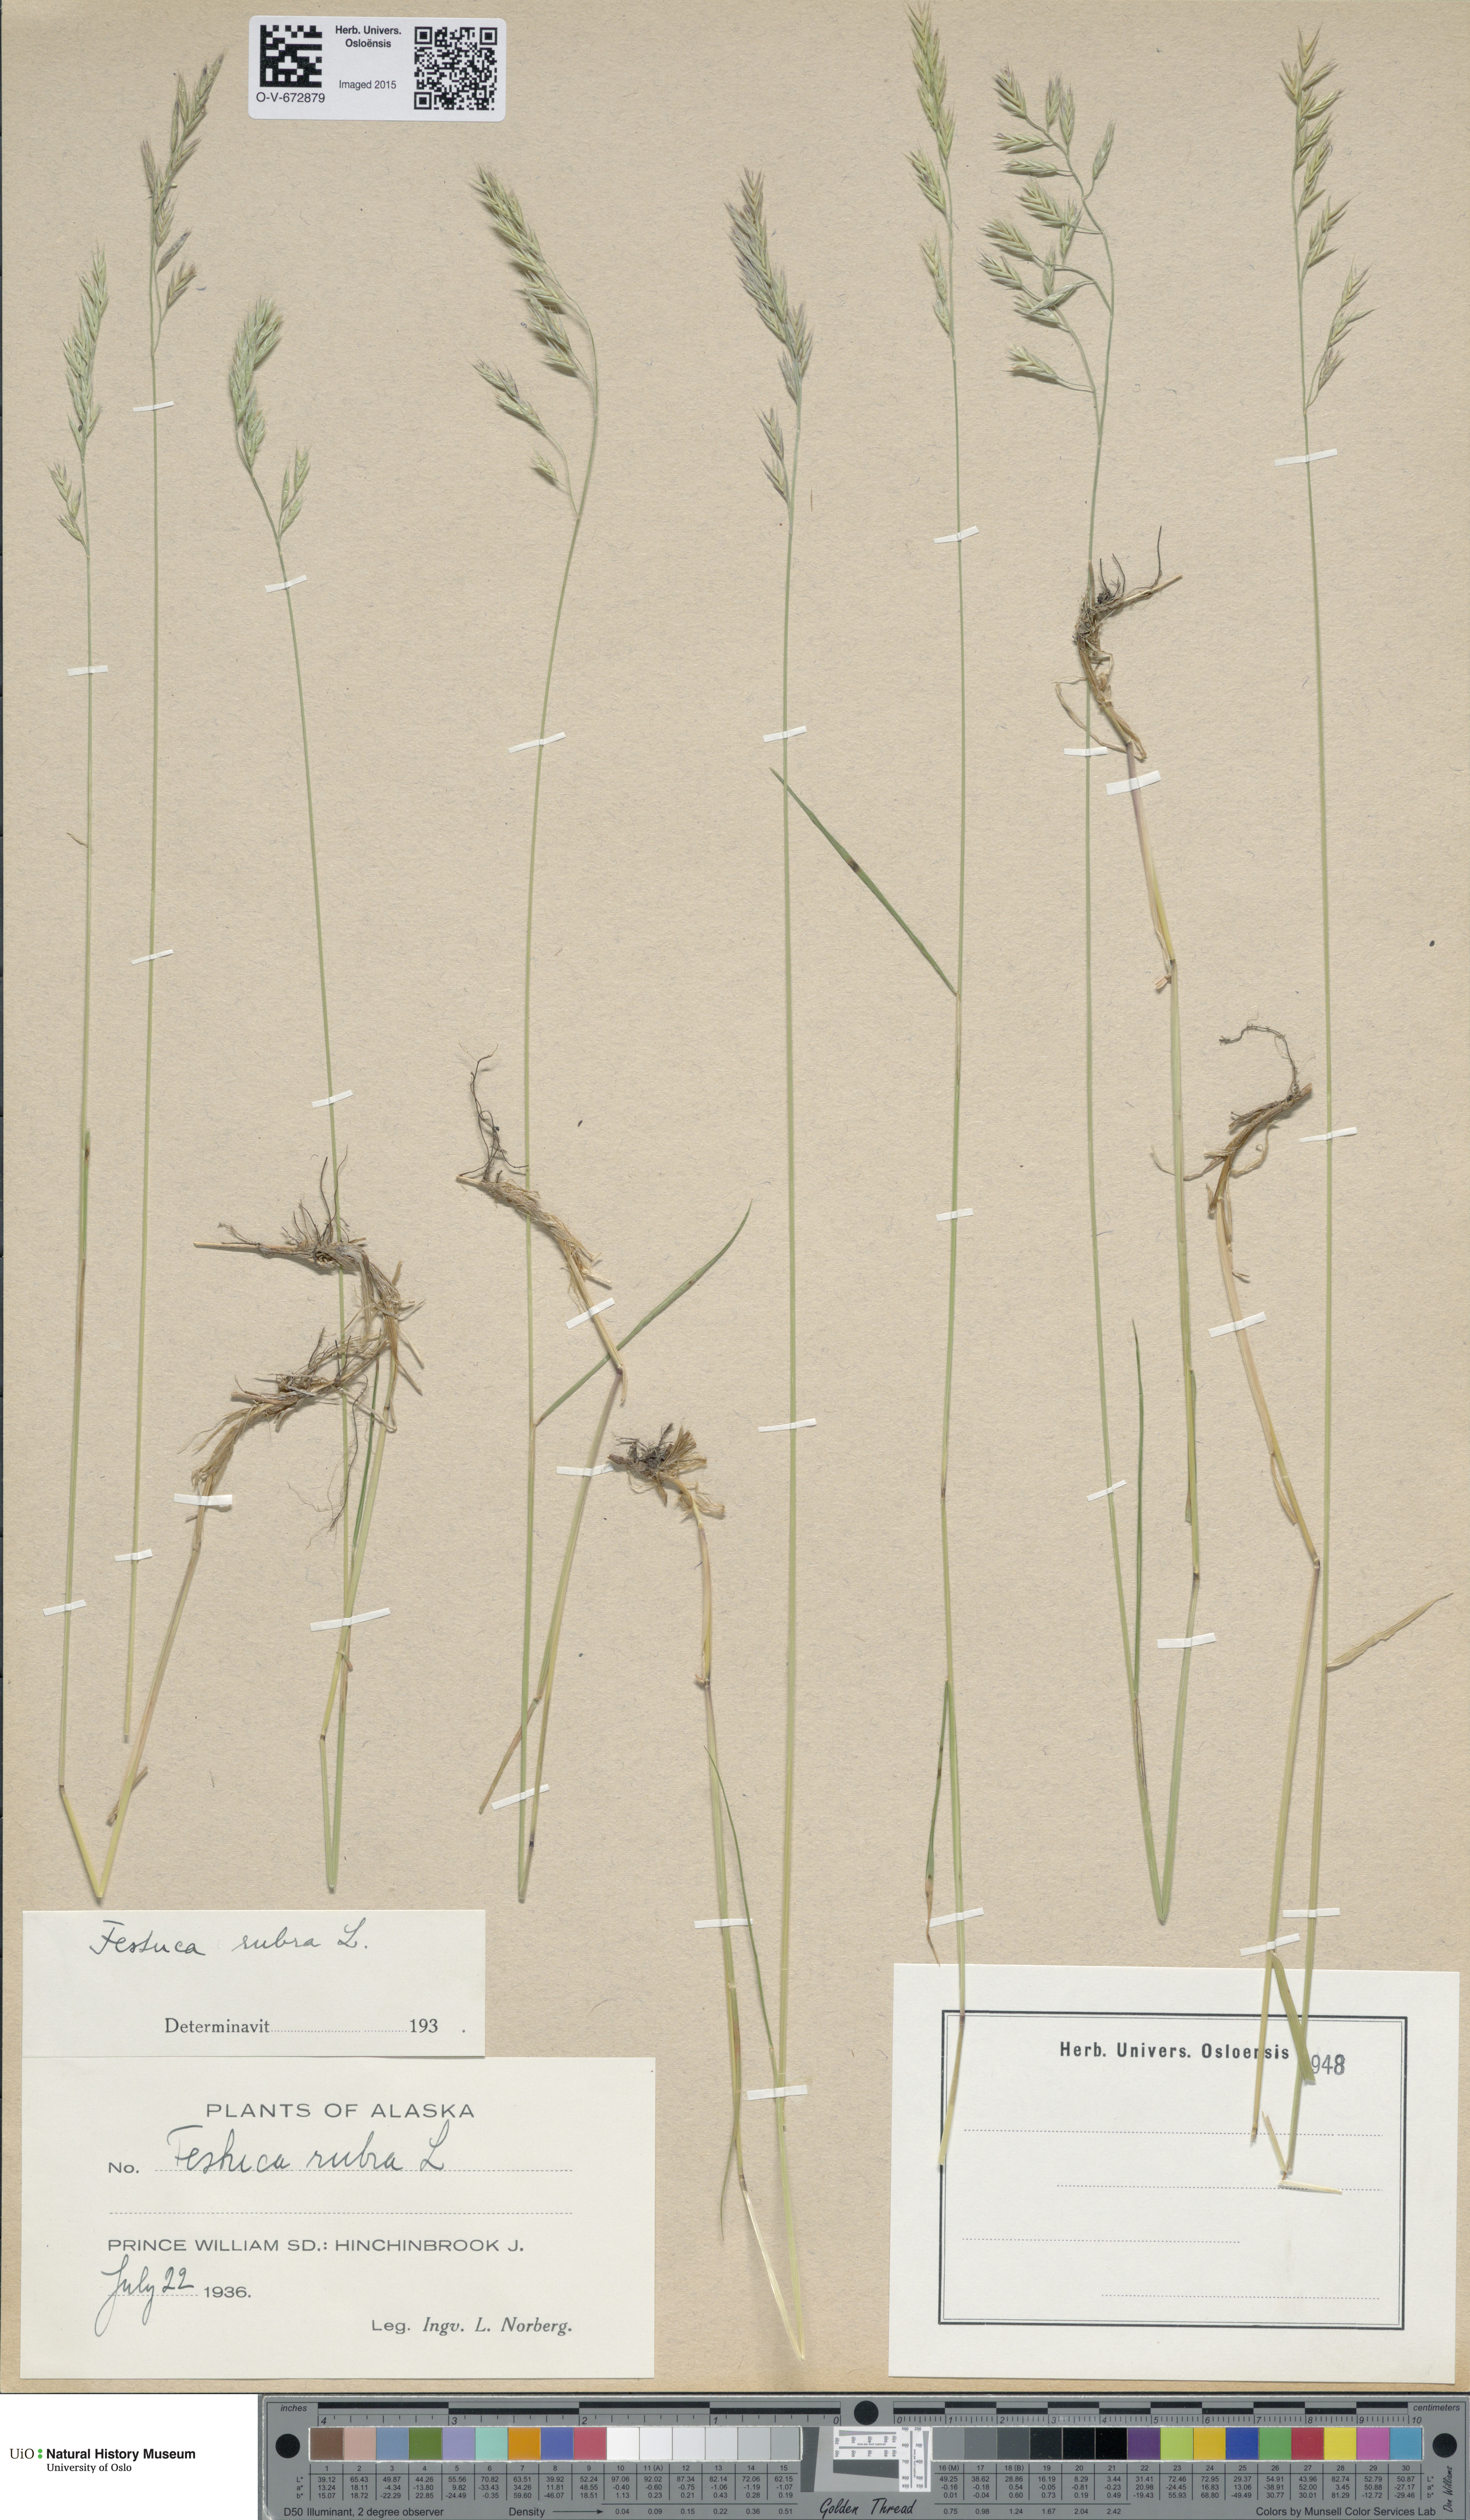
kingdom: Plantae
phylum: Tracheophyta
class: Liliopsida
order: Poales
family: Poaceae
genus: Festuca
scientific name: Festuca rubra
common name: Red fescue
